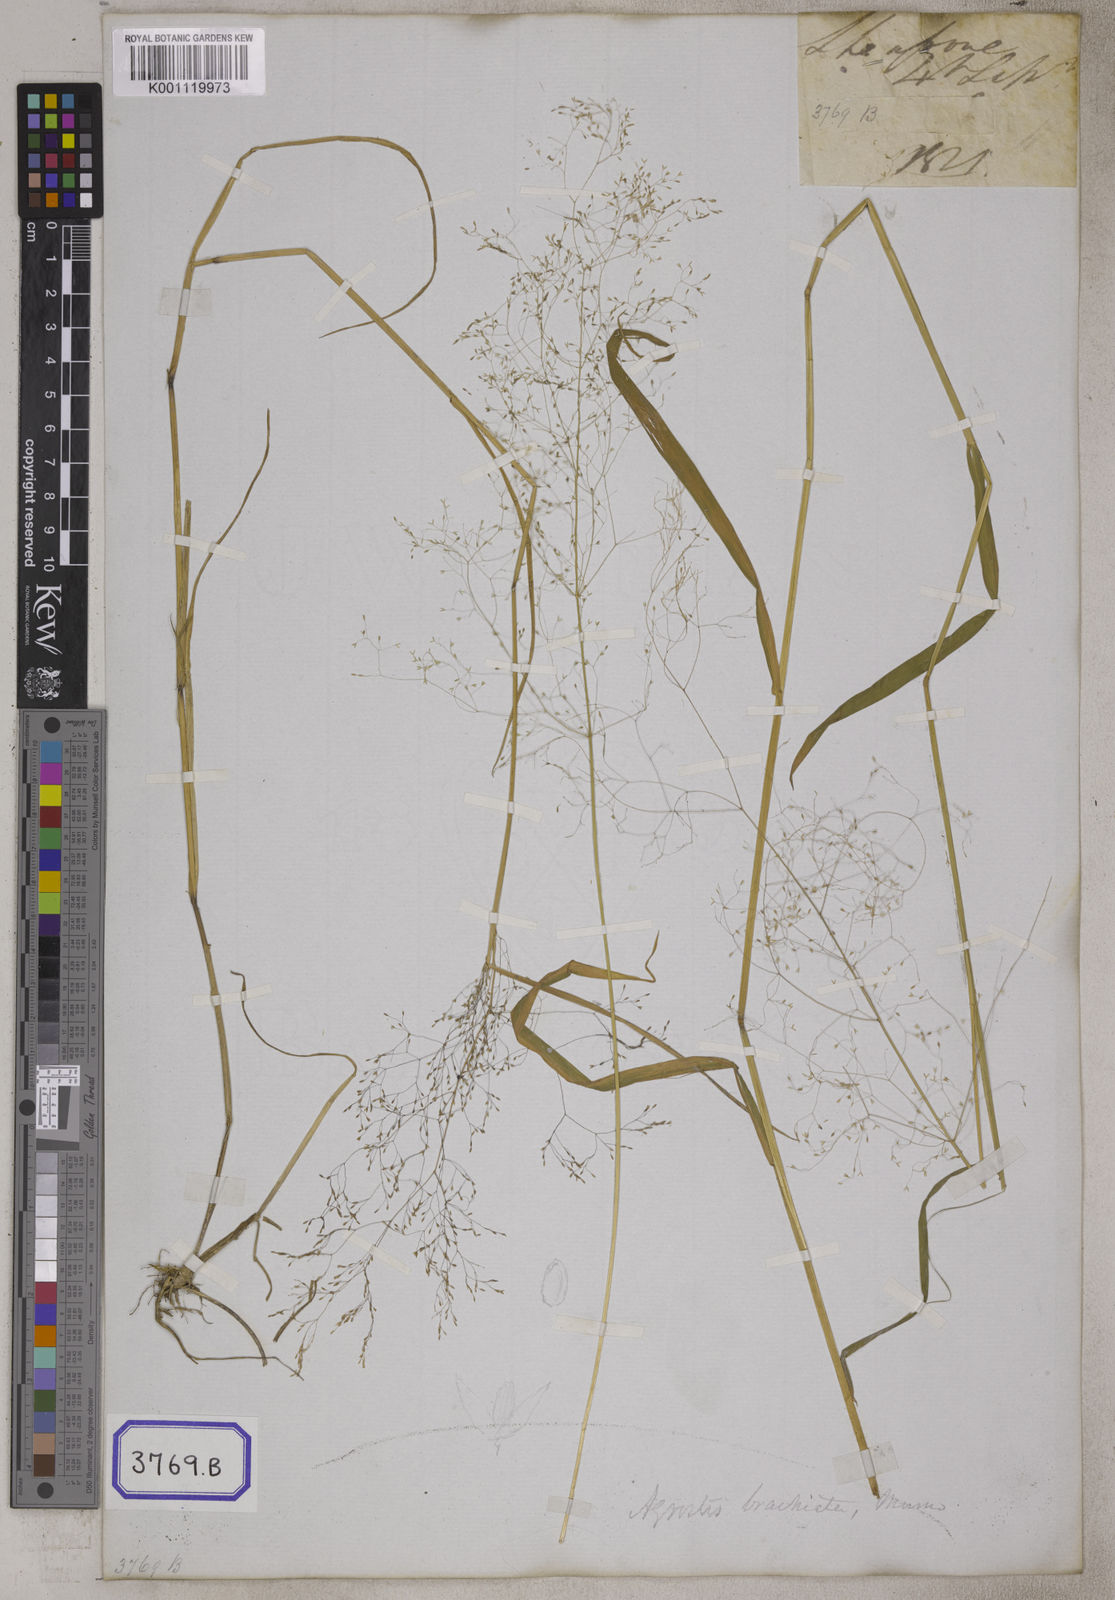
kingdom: Plantae
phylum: Tracheophyta
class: Liliopsida
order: Poales
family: Poaceae
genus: Sporobolus
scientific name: Sporobolus
